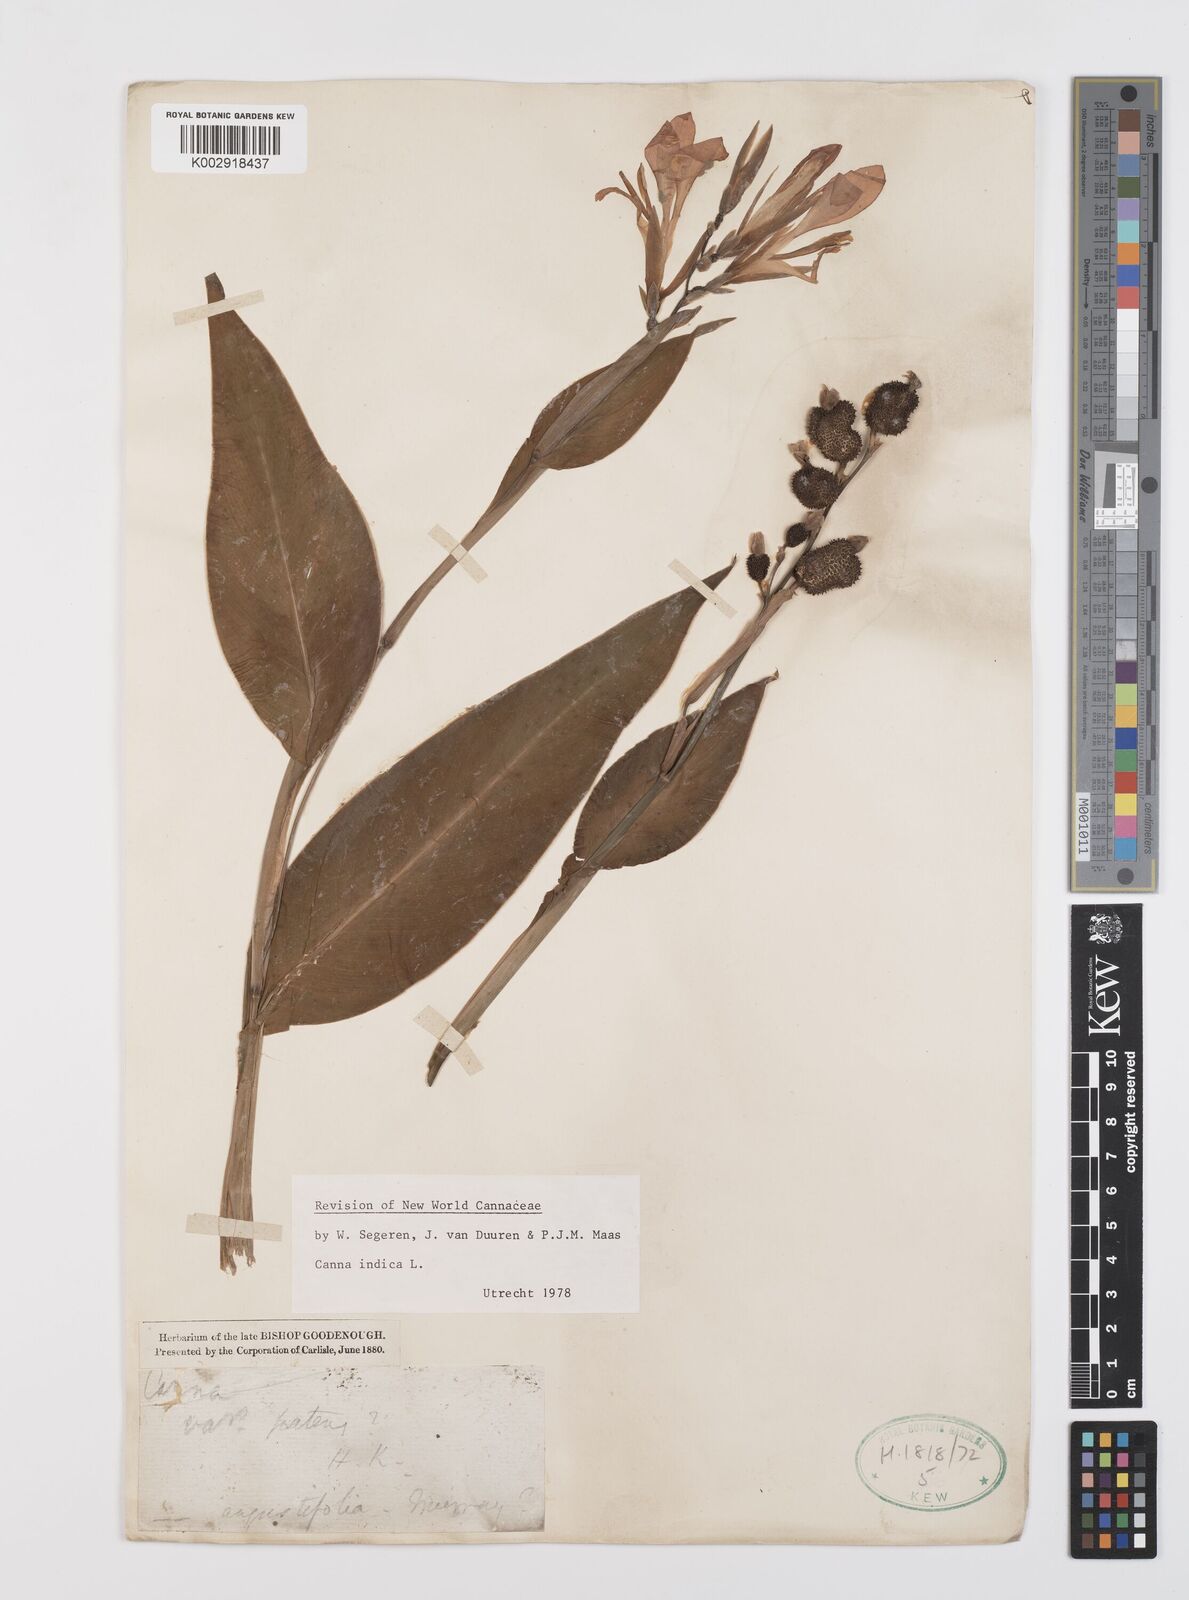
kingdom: Plantae
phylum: Tracheophyta
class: Liliopsida
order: Zingiberales
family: Cannaceae
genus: Canna
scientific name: Canna indica
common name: Indian shot
